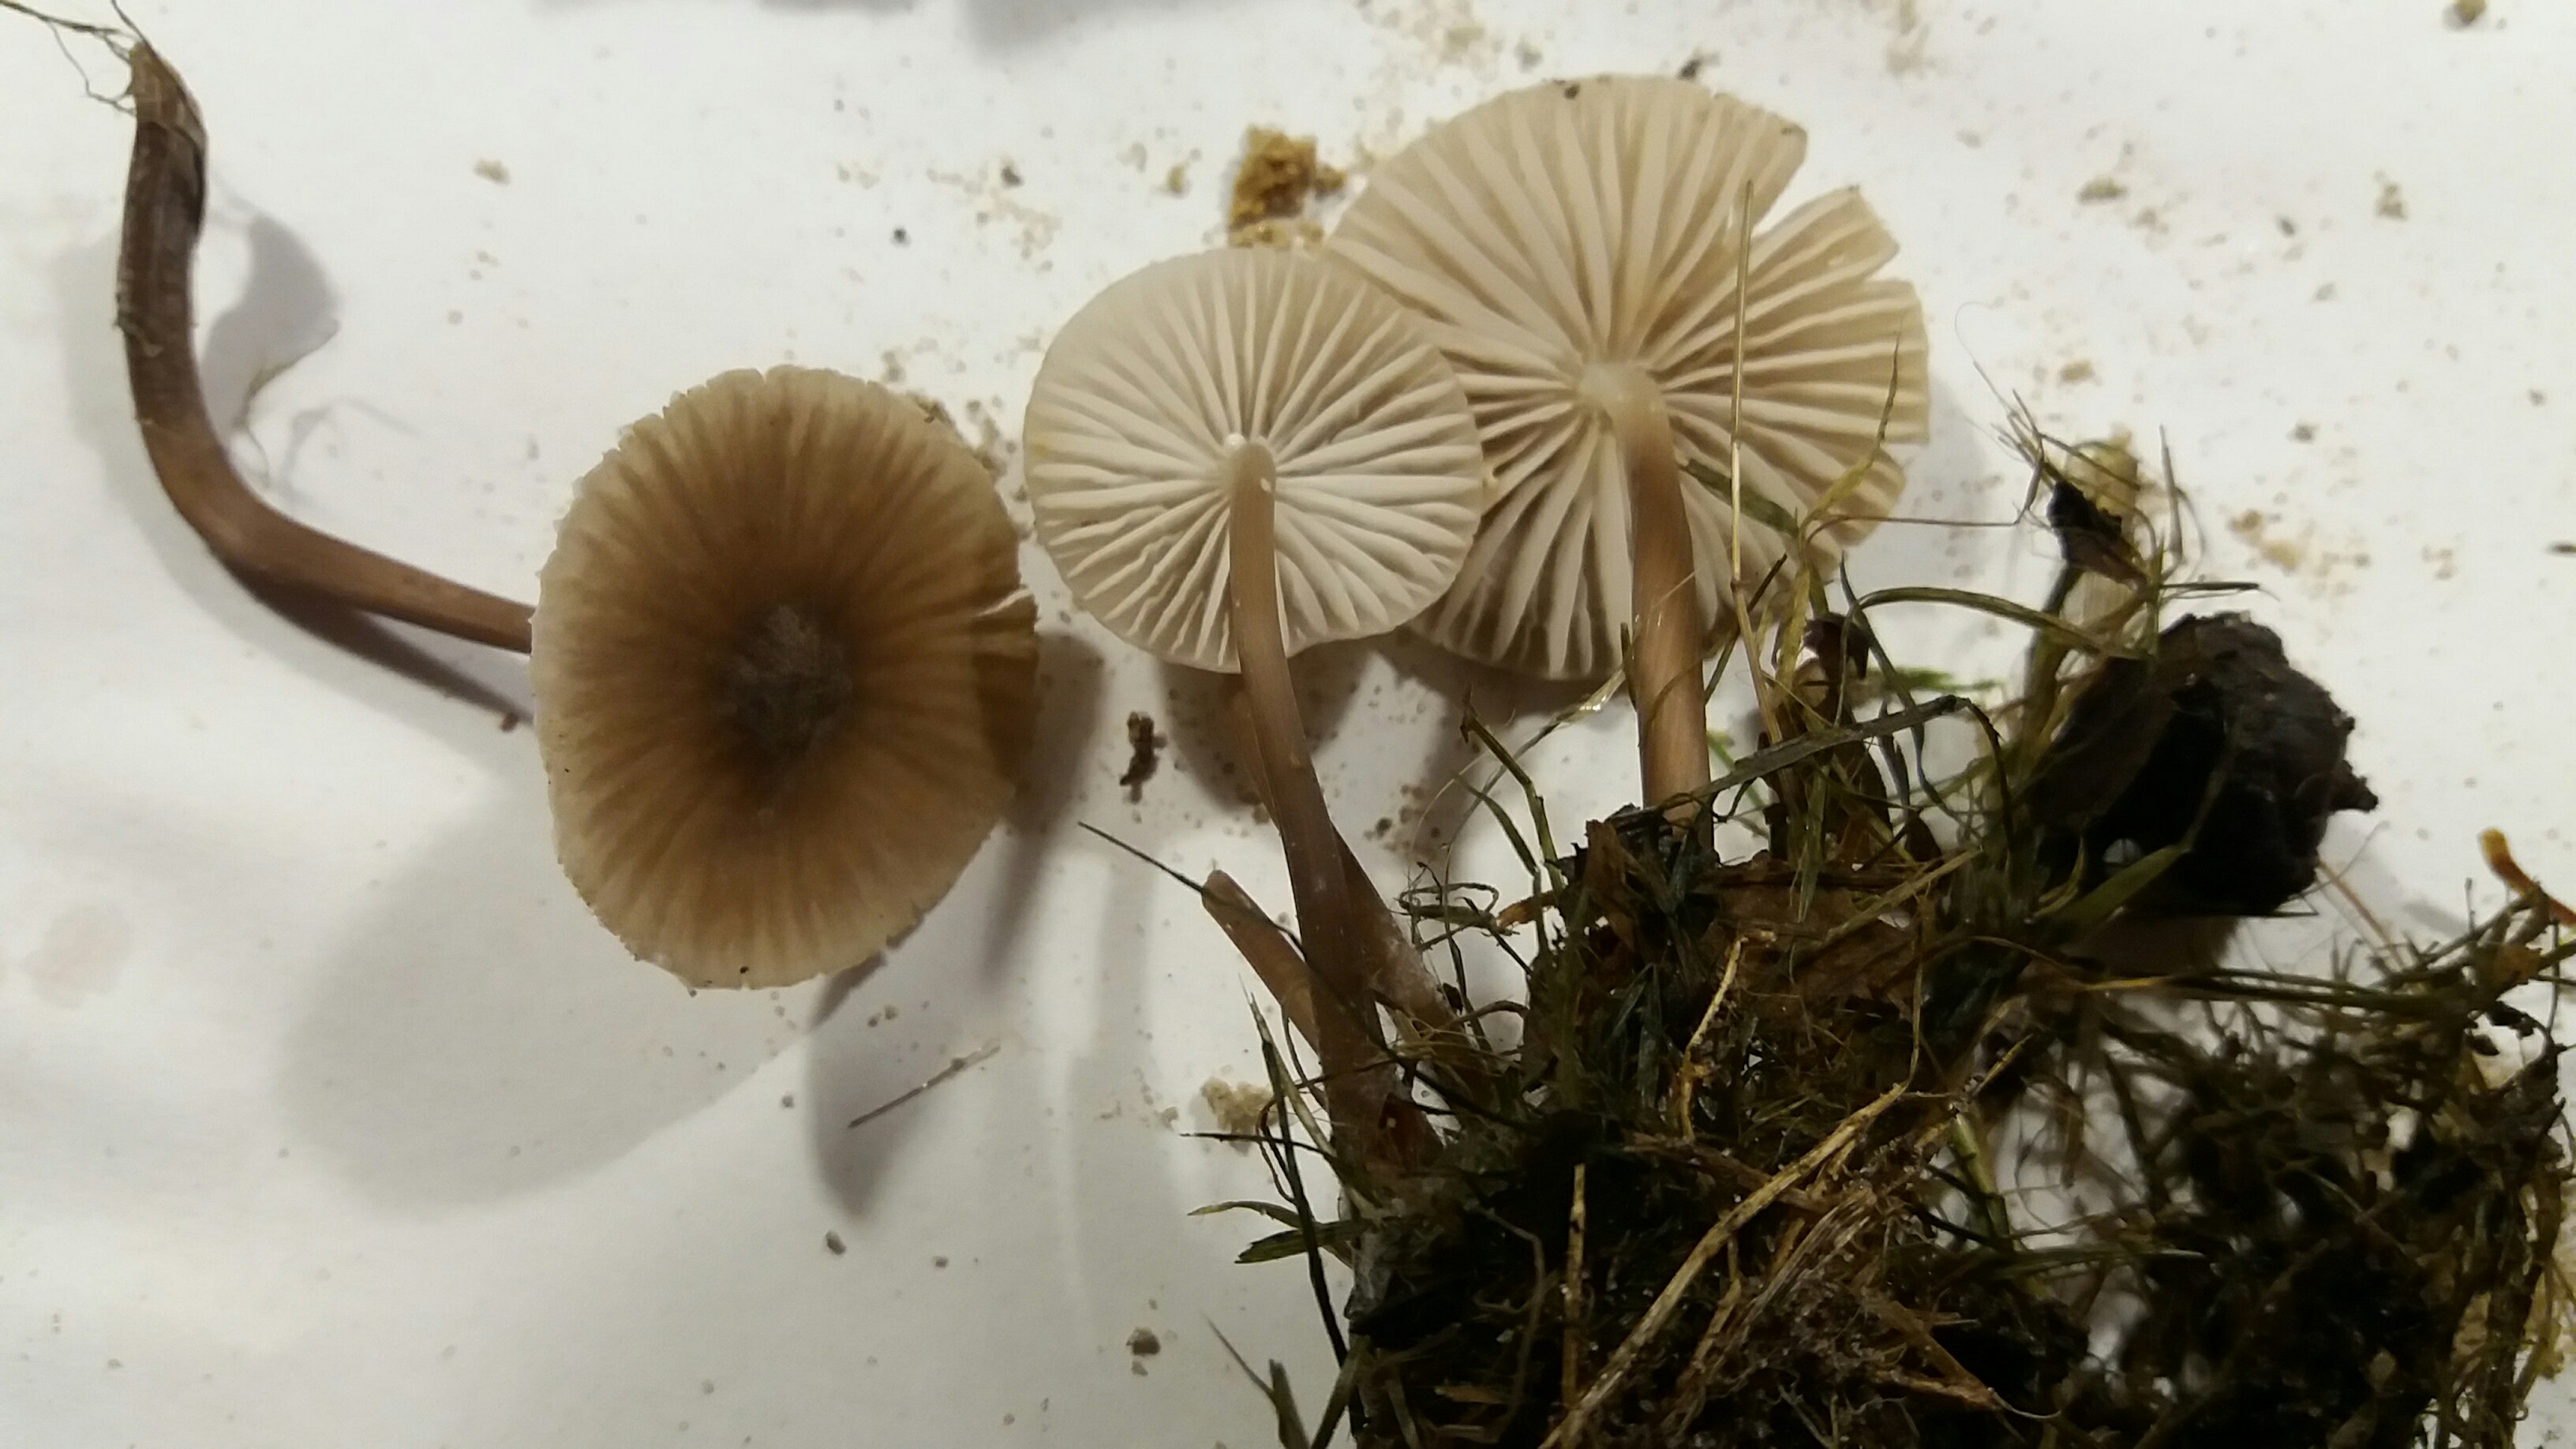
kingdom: Fungi
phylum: Basidiomycota
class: Agaricomycetes
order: Agaricales
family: Mycenaceae
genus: Mycena
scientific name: Mycena galopus
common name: hvidmælket huesvamp
